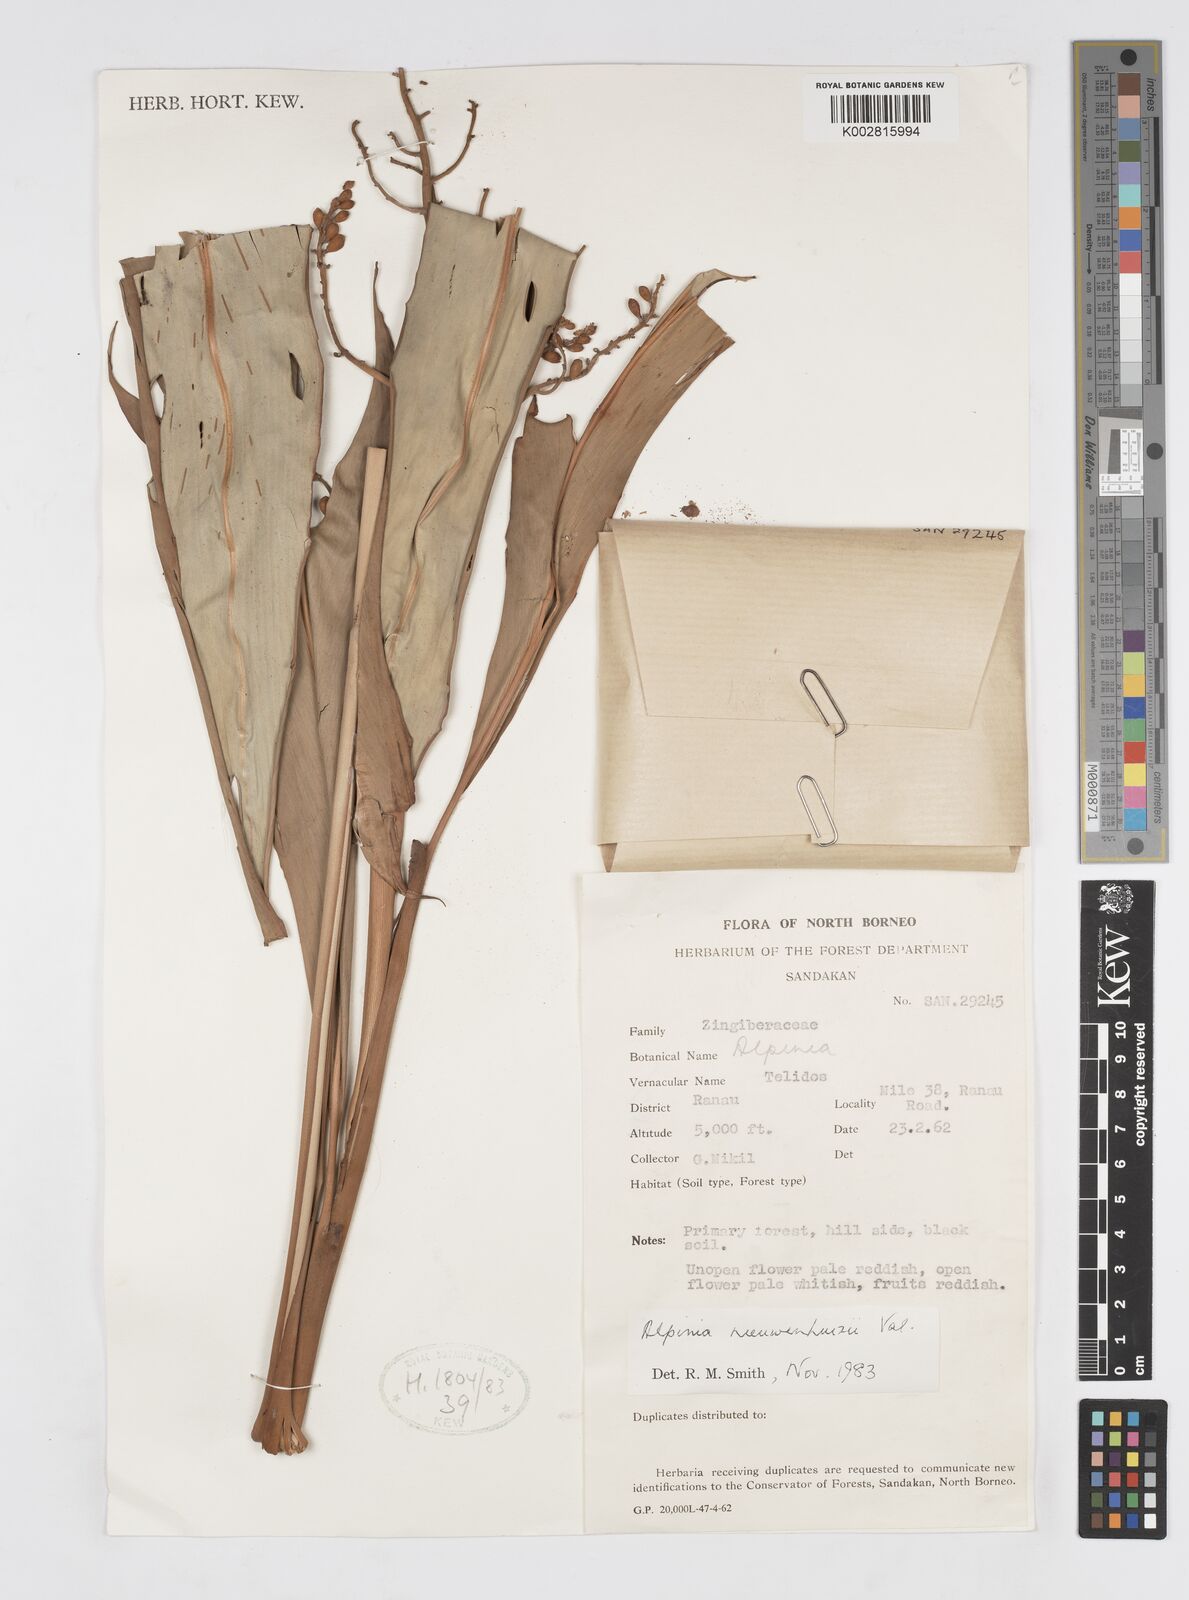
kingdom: Plantae
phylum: Tracheophyta
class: Liliopsida
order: Zingiberales
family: Zingiberaceae
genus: Alpinia
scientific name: Alpinia nieuwenhuizii
